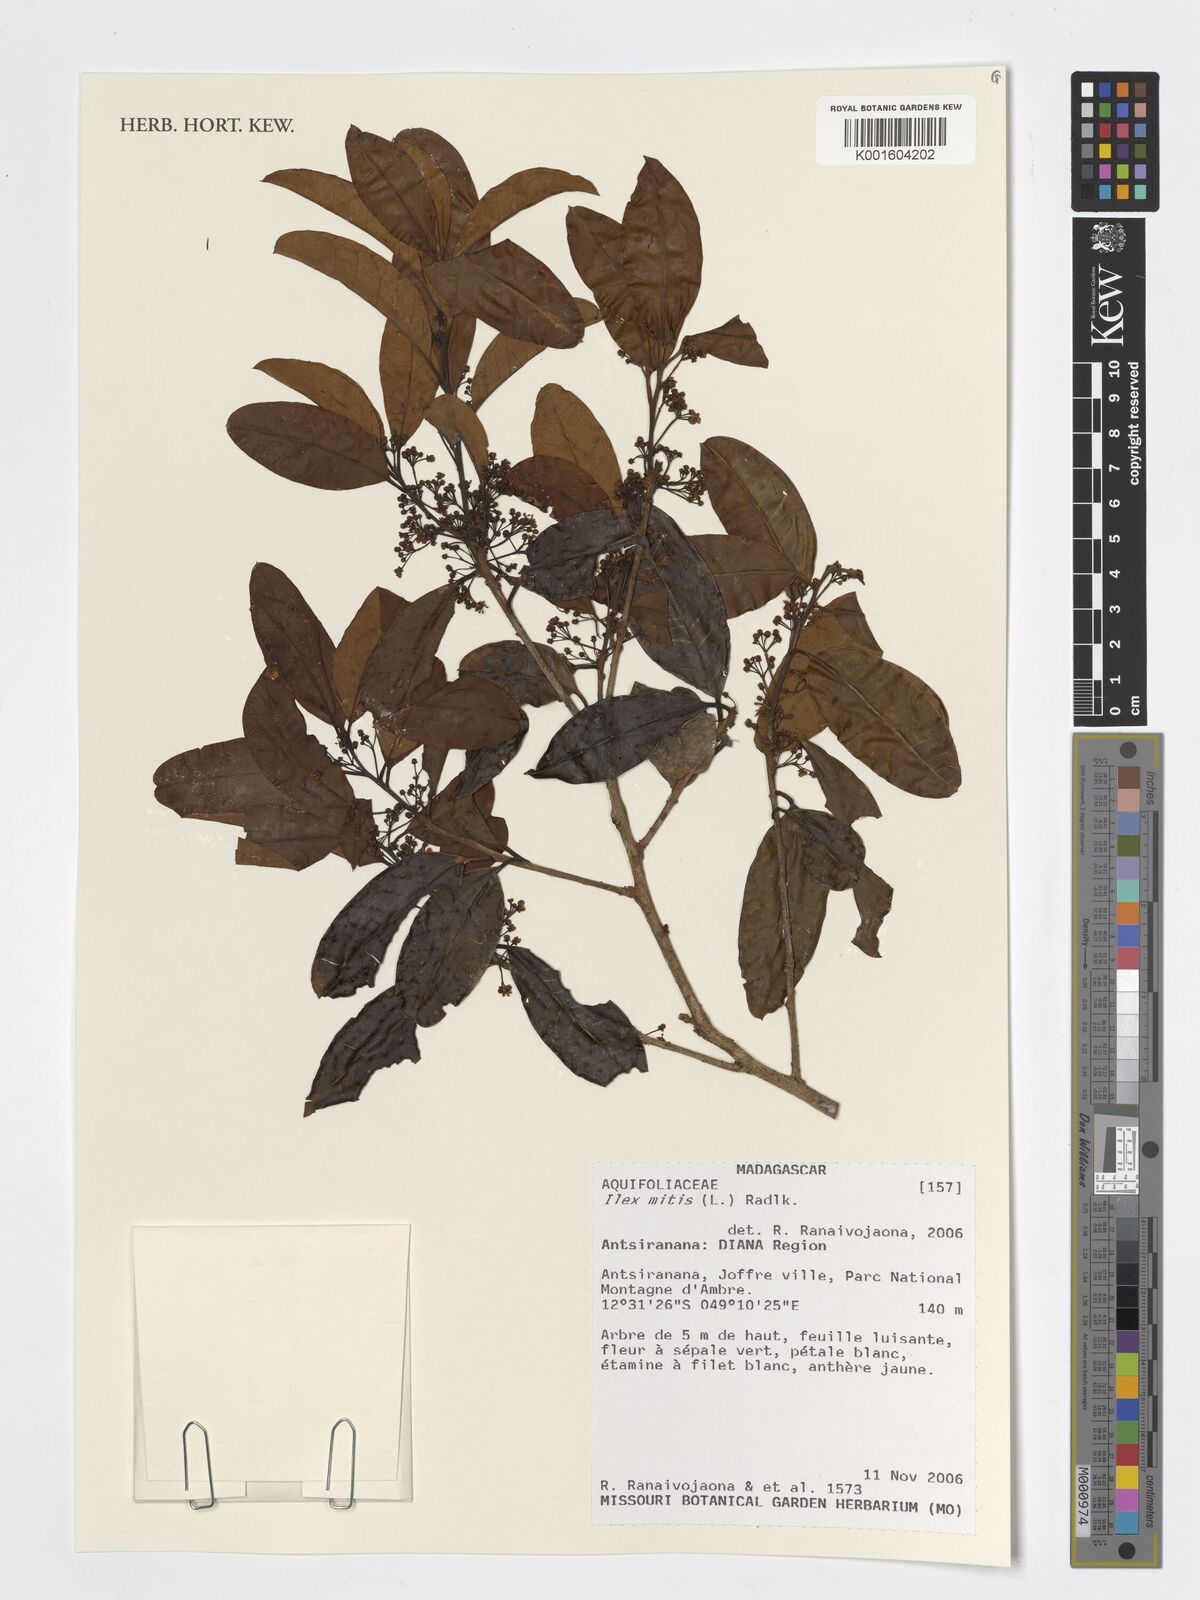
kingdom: Plantae
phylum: Tracheophyta
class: Magnoliopsida
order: Aquifoliales
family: Aquifoliaceae
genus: Ilex
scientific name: Ilex mitis
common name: African holly
